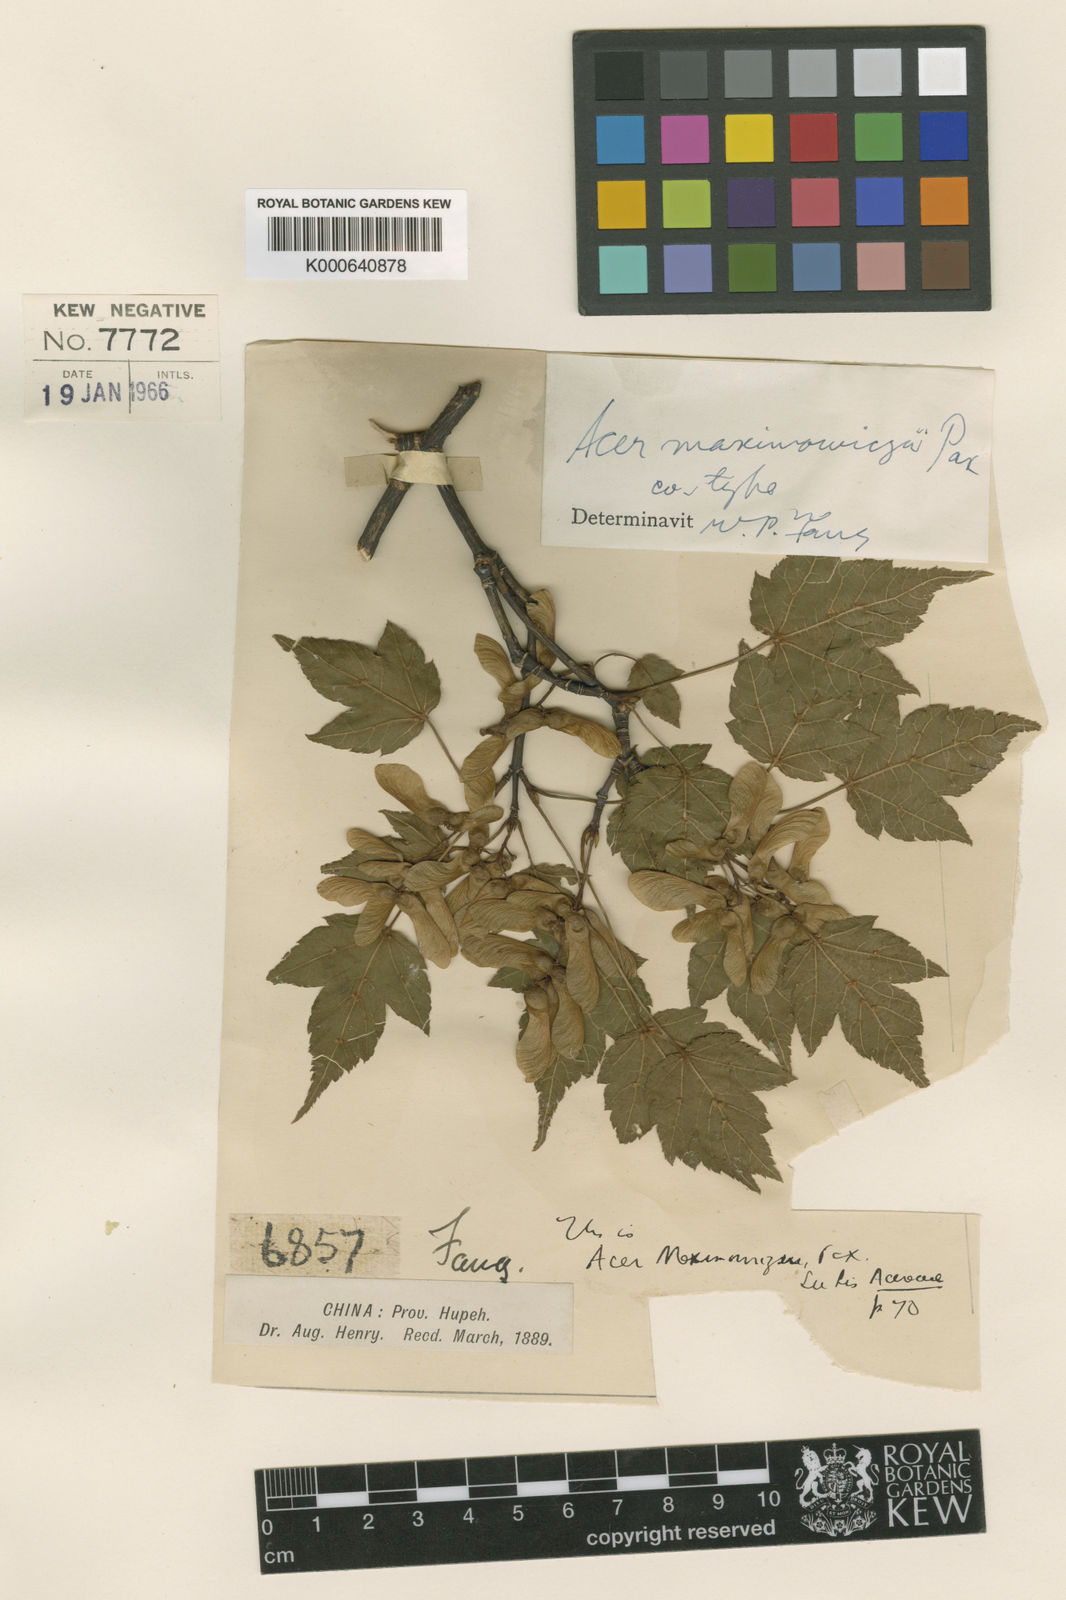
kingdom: Plantae
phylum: Tracheophyta
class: Magnoliopsida
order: Sapindales
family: Sapindaceae
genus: Acer
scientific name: Acer maximowiczii
